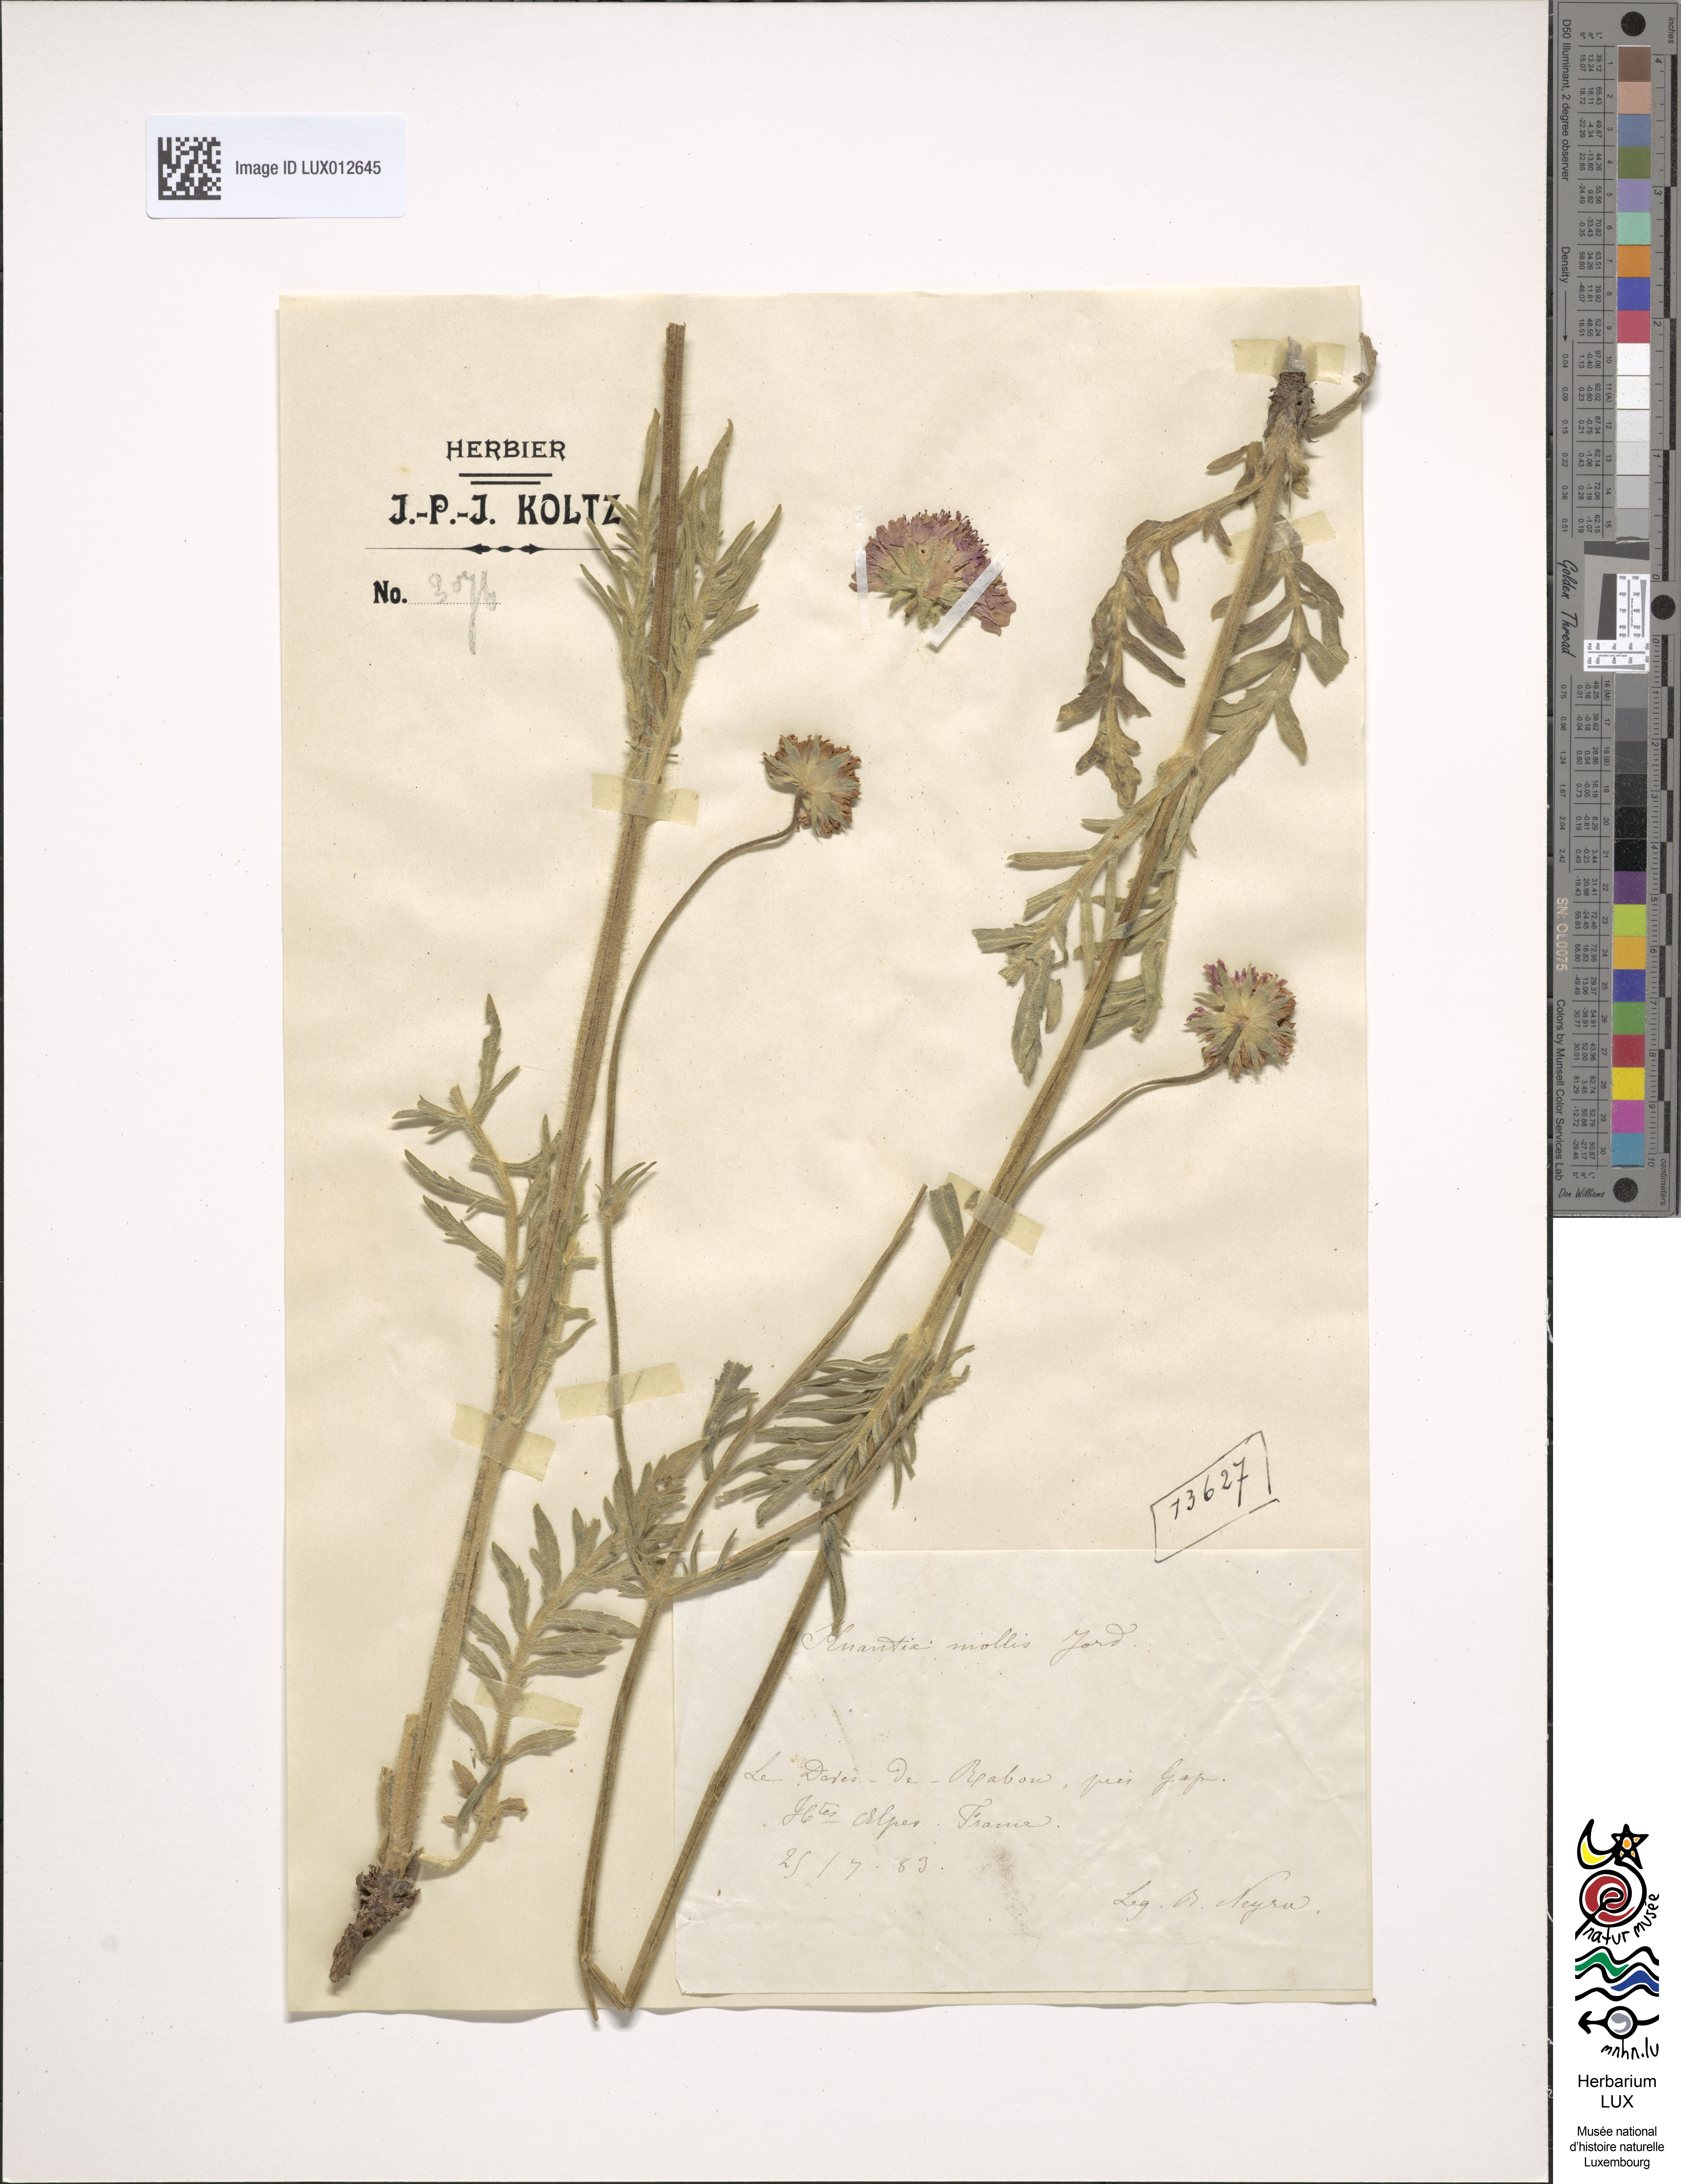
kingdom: Plantae
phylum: Tracheophyta
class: Magnoliopsida
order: Dipsacales
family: Caprifoliaceae
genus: Knautia
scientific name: Knautia mollis
